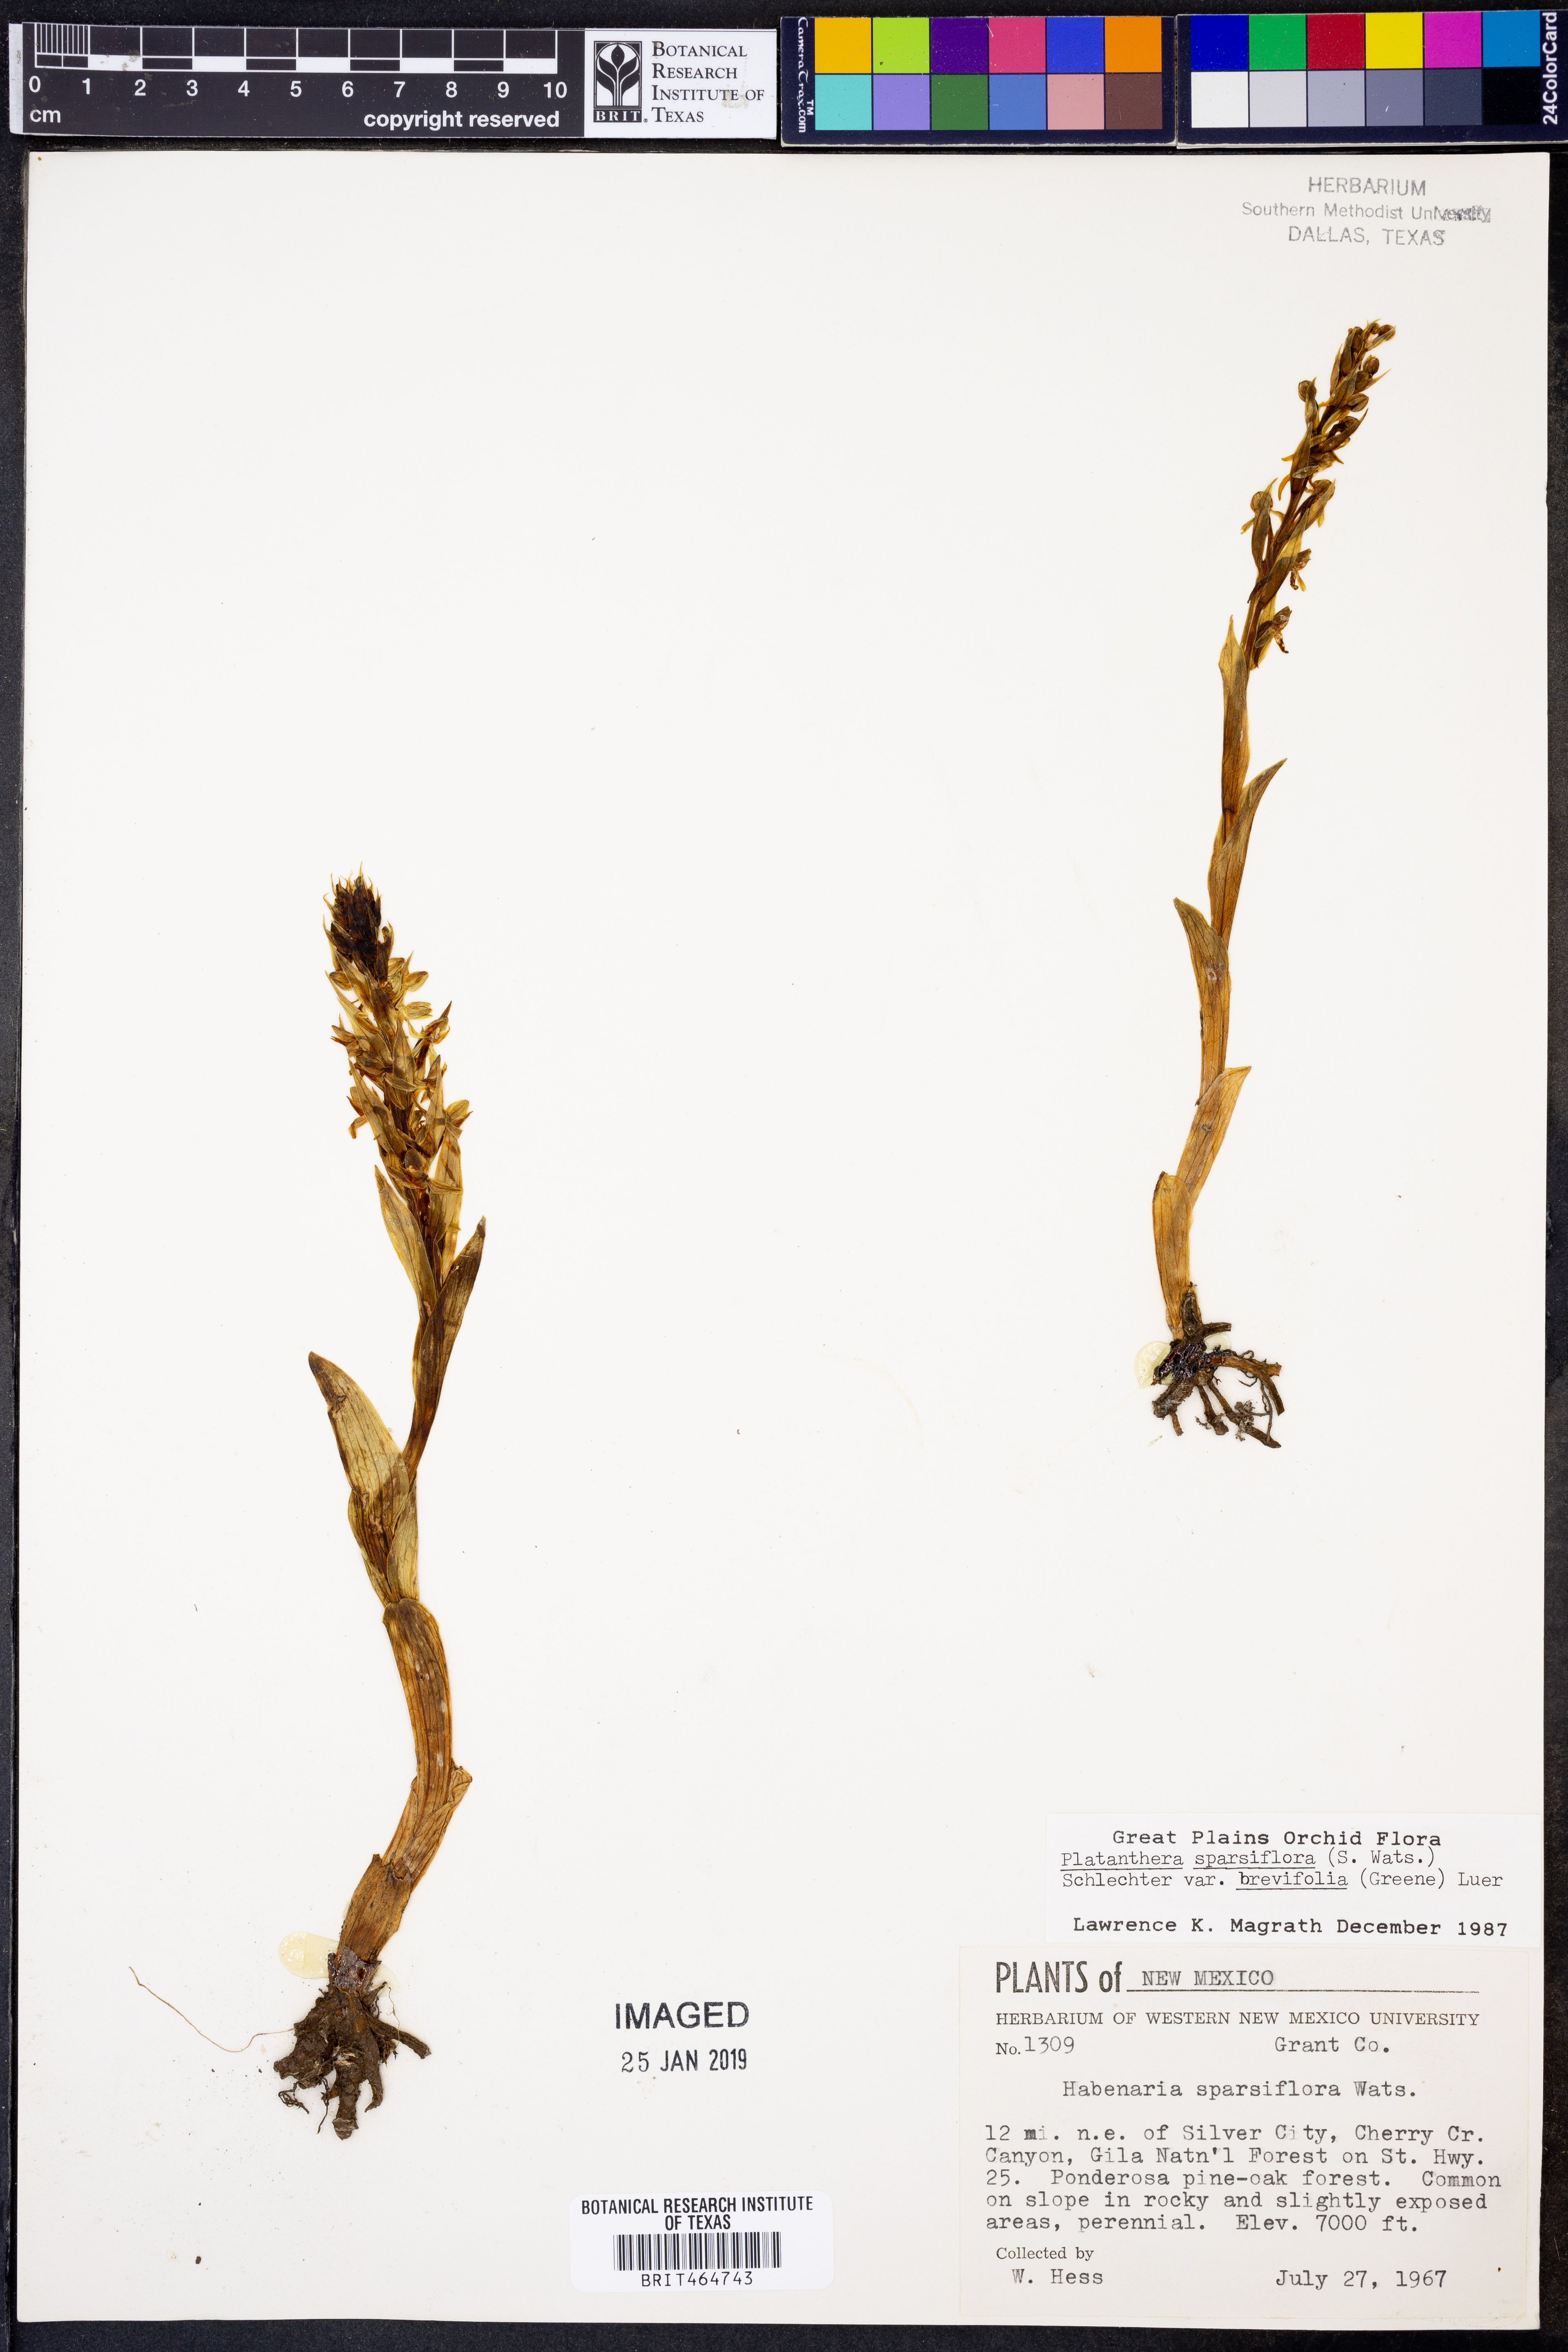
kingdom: Plantae
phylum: Tracheophyta
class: Liliopsida
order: Asparagales
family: Orchidaceae
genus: Platanthera
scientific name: Platanthera brevifolia
